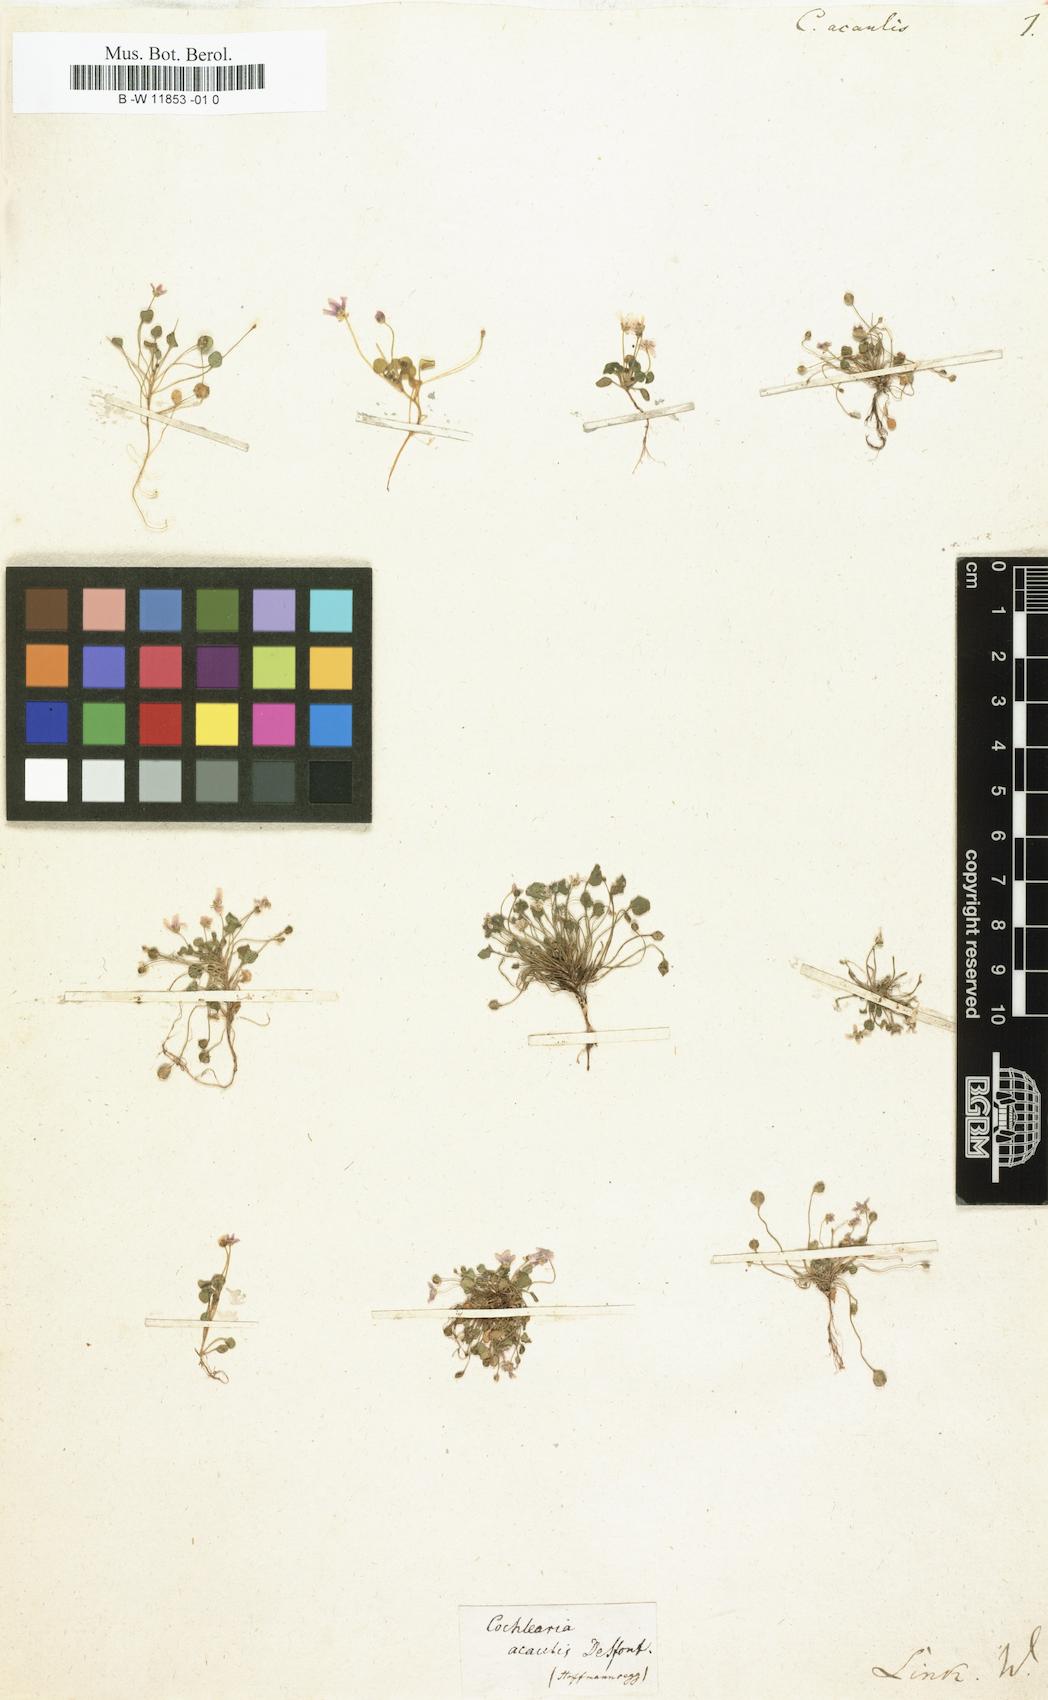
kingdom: Plantae
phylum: Tracheophyta
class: Magnoliopsida
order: Brassicales
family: Brassicaceae
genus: Ionopsidium
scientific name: Ionopsidium acaule
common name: False diamondflower
